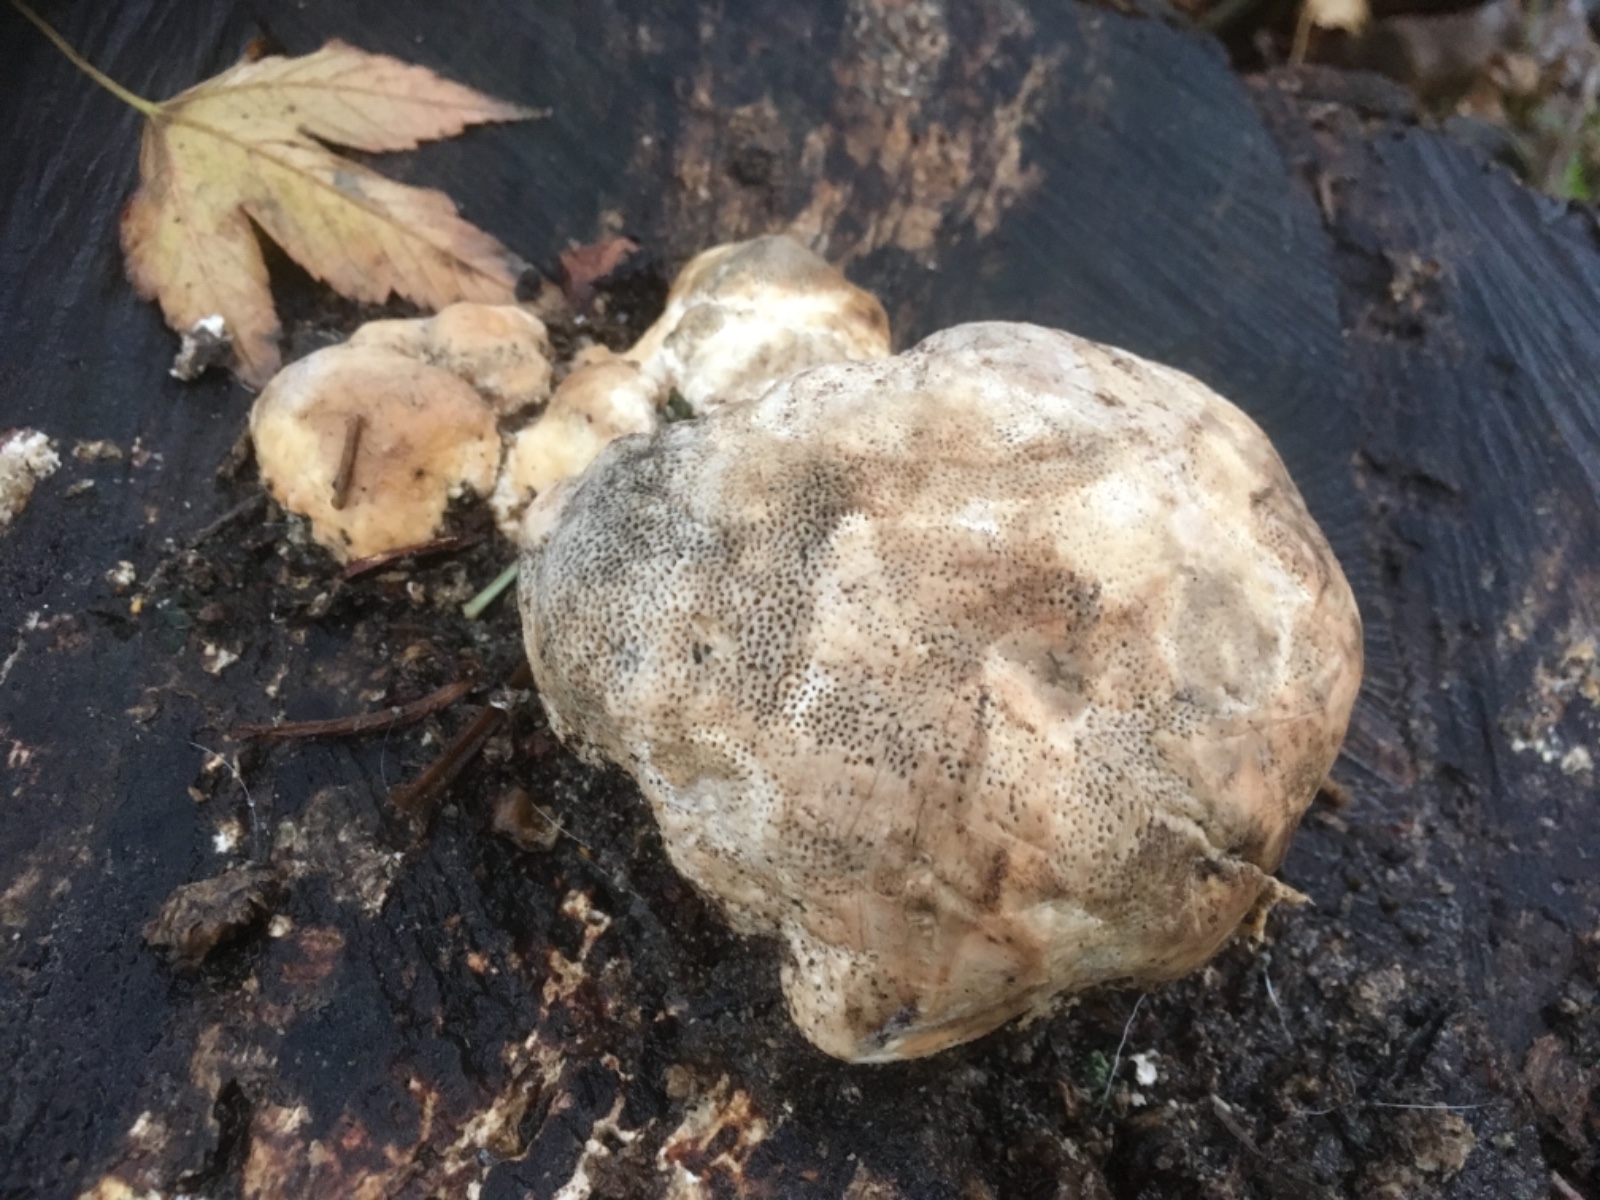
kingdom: Fungi
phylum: Basidiomycota
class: Agaricomycetes
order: Polyporales
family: Polyporaceae
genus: Trametes
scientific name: Trametes gibbosa
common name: puklet læderporesvamp
